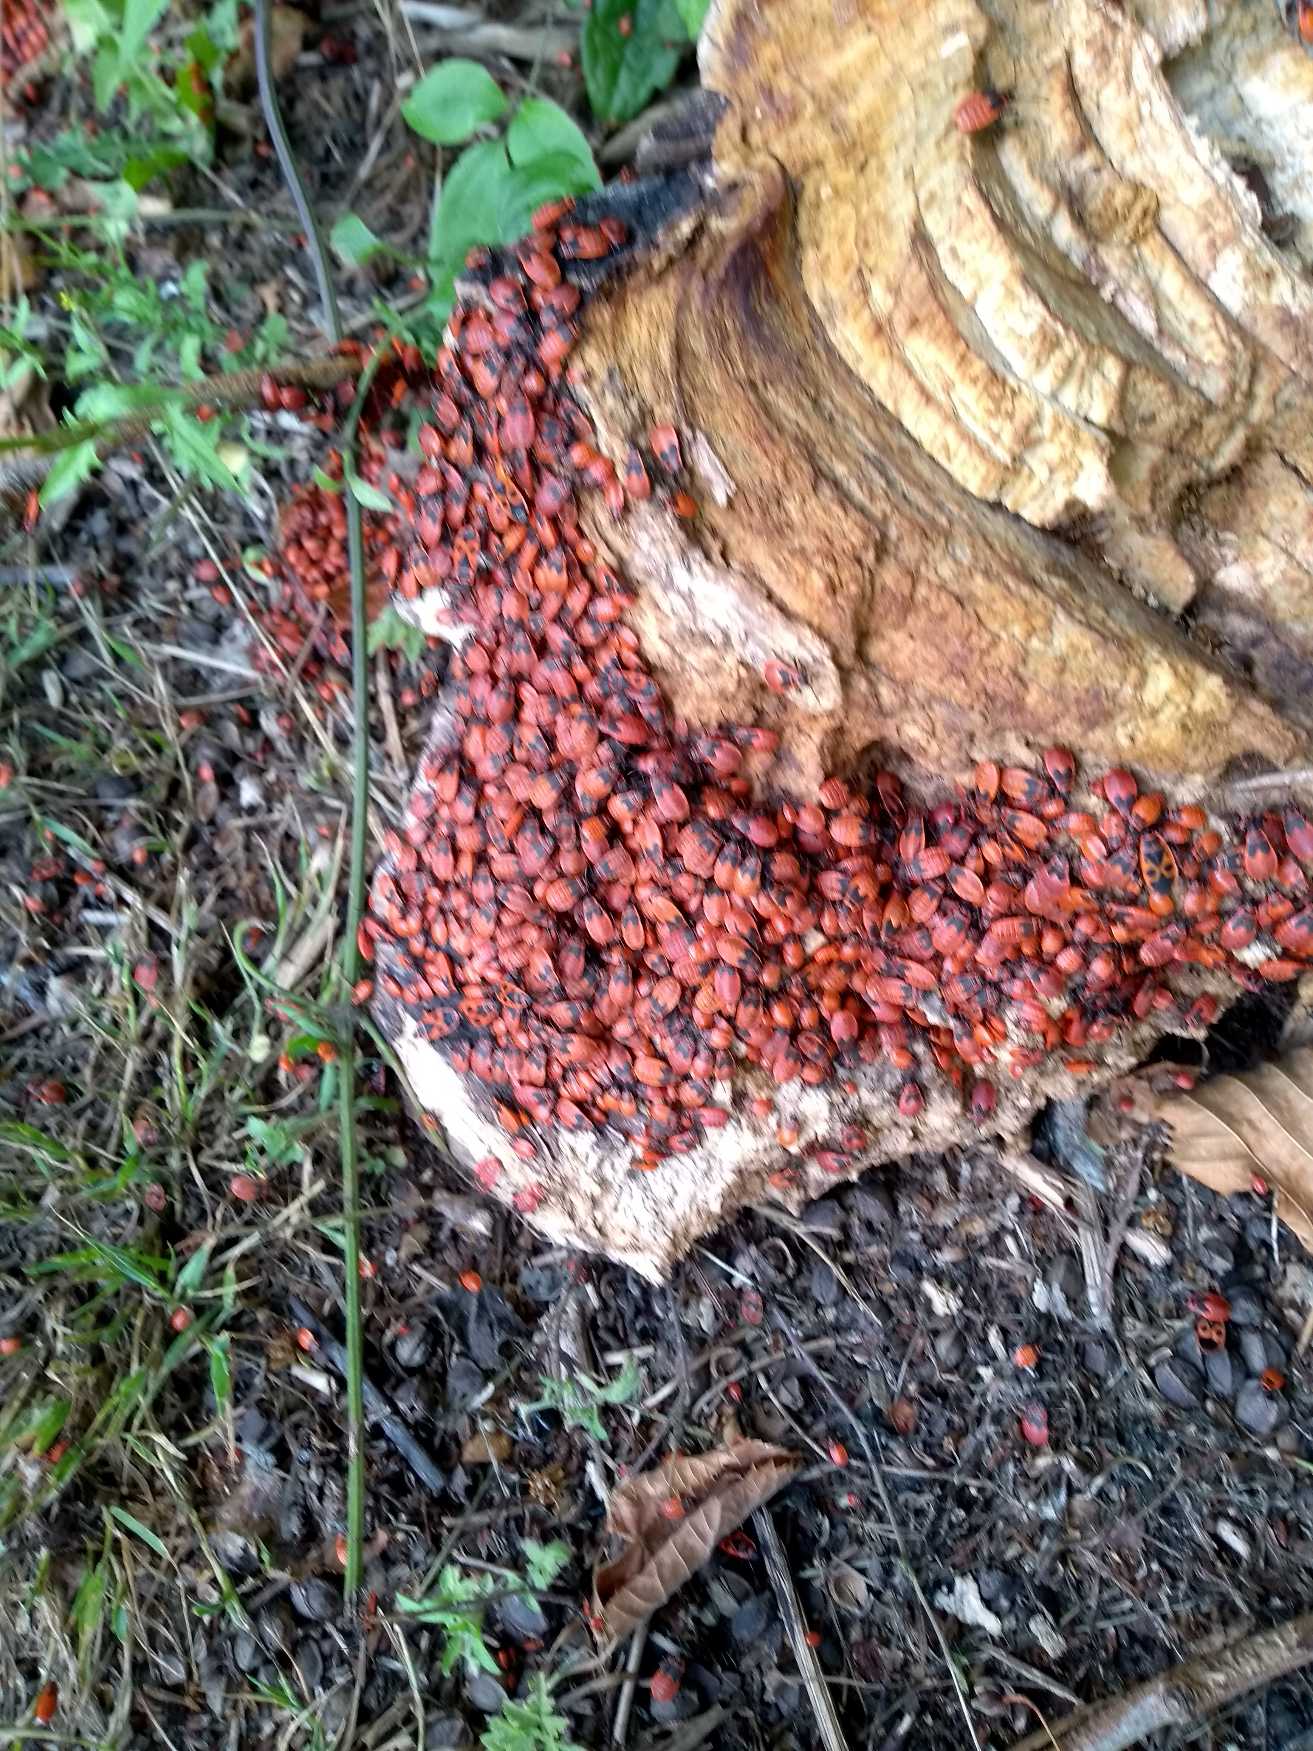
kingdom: Animalia
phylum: Arthropoda
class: Insecta
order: Hemiptera
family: Pyrrhocoridae
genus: Pyrrhocoris
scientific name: Pyrrhocoris apterus
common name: Ildtæge
